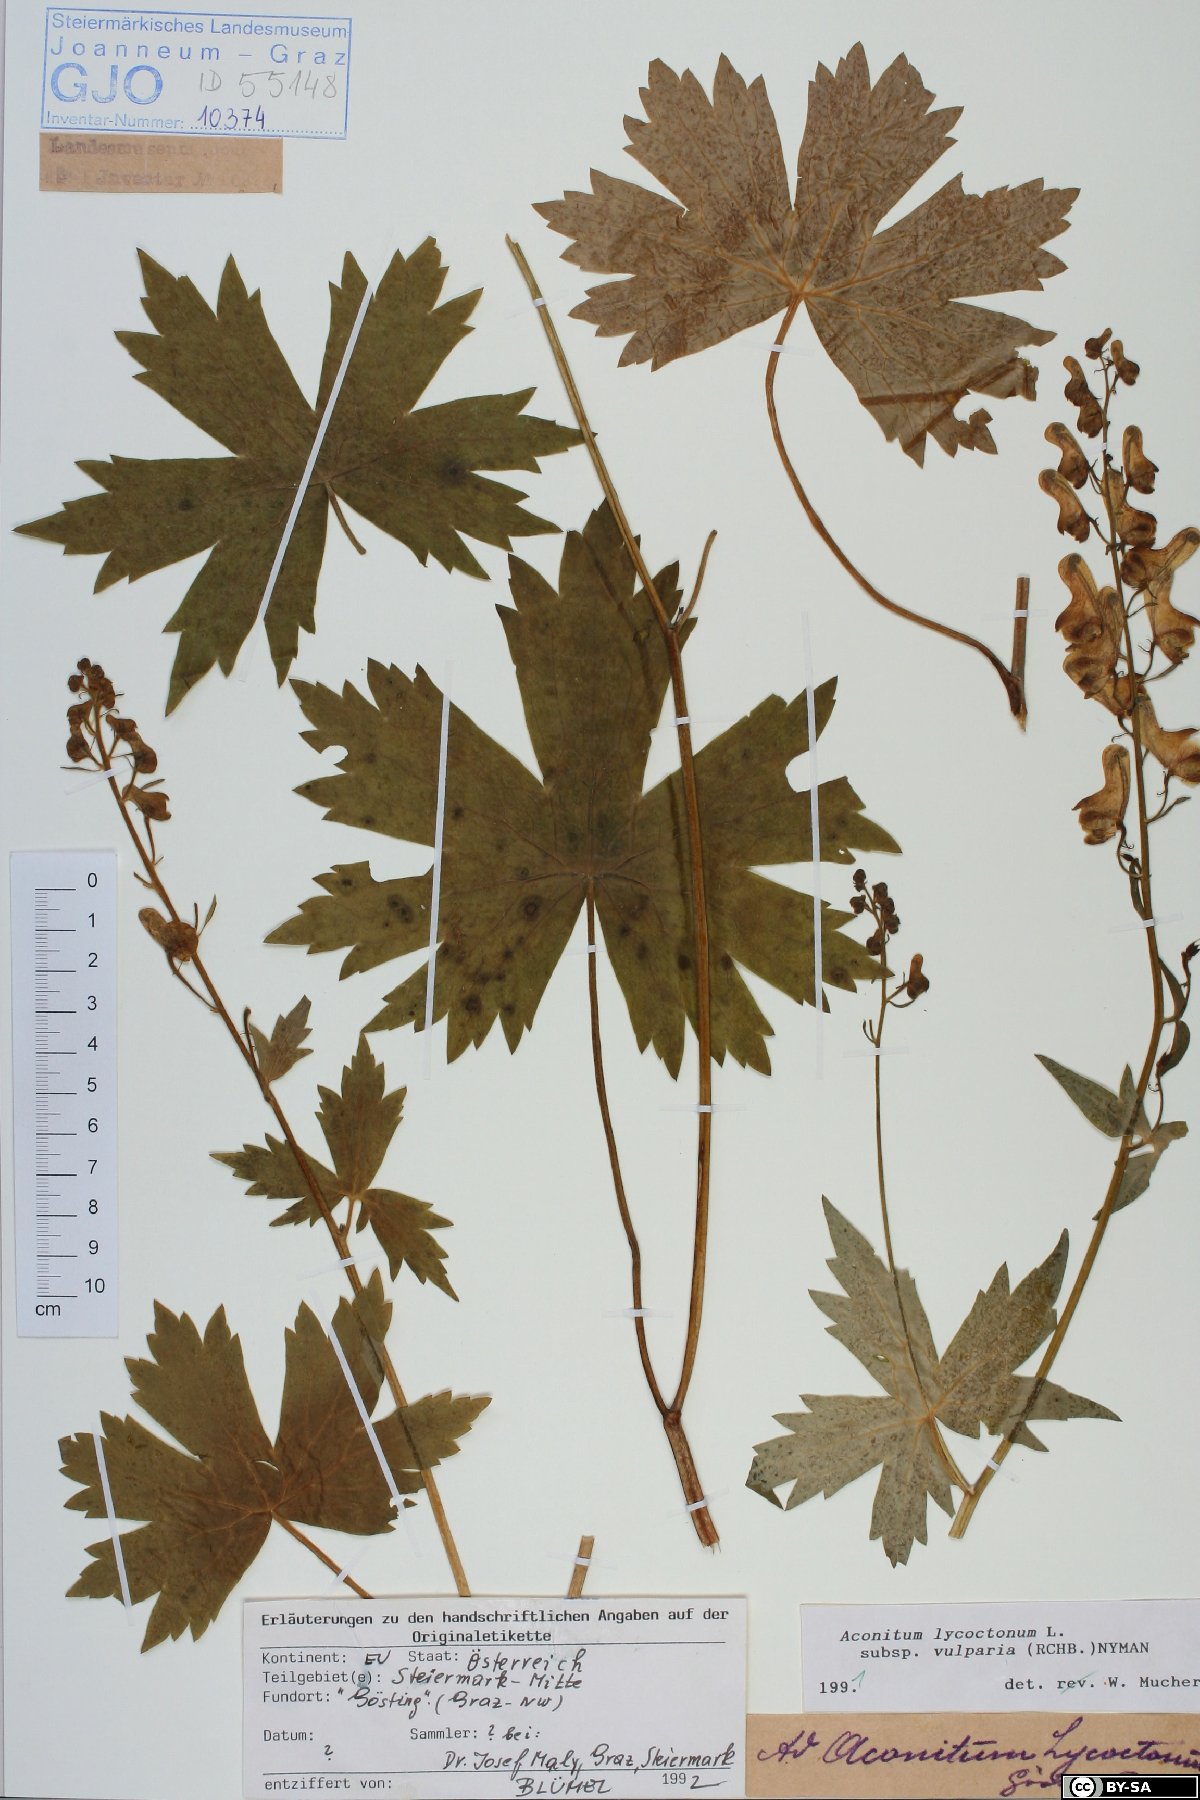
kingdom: Plantae
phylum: Tracheophyta
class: Magnoliopsida
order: Ranunculales
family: Ranunculaceae
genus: Aconitum
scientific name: Aconitum lycoctonum
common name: Wolf's-bane
